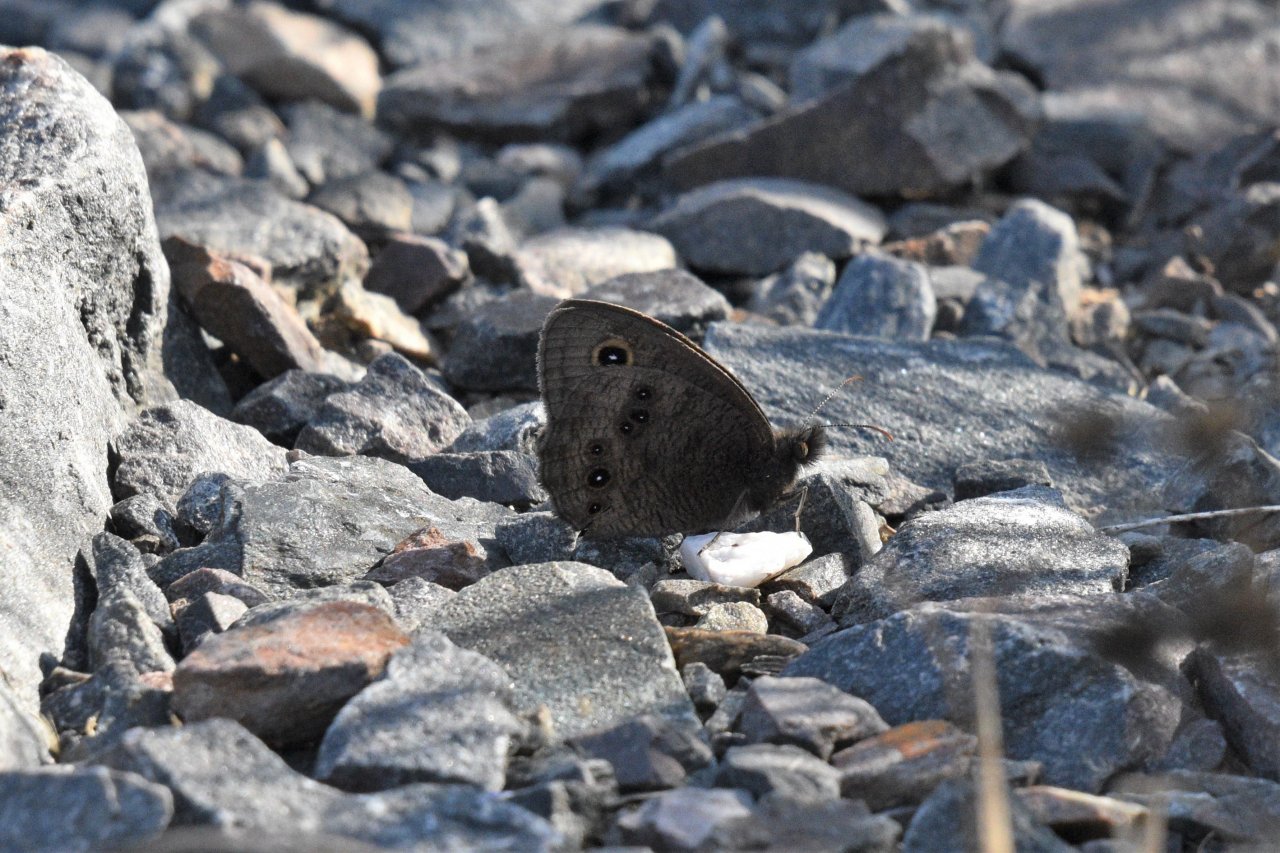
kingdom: Animalia
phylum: Arthropoda
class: Insecta
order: Lepidoptera
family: Nymphalidae
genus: Cercyonis
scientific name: Cercyonis pegala
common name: Common Wood-Nymph
